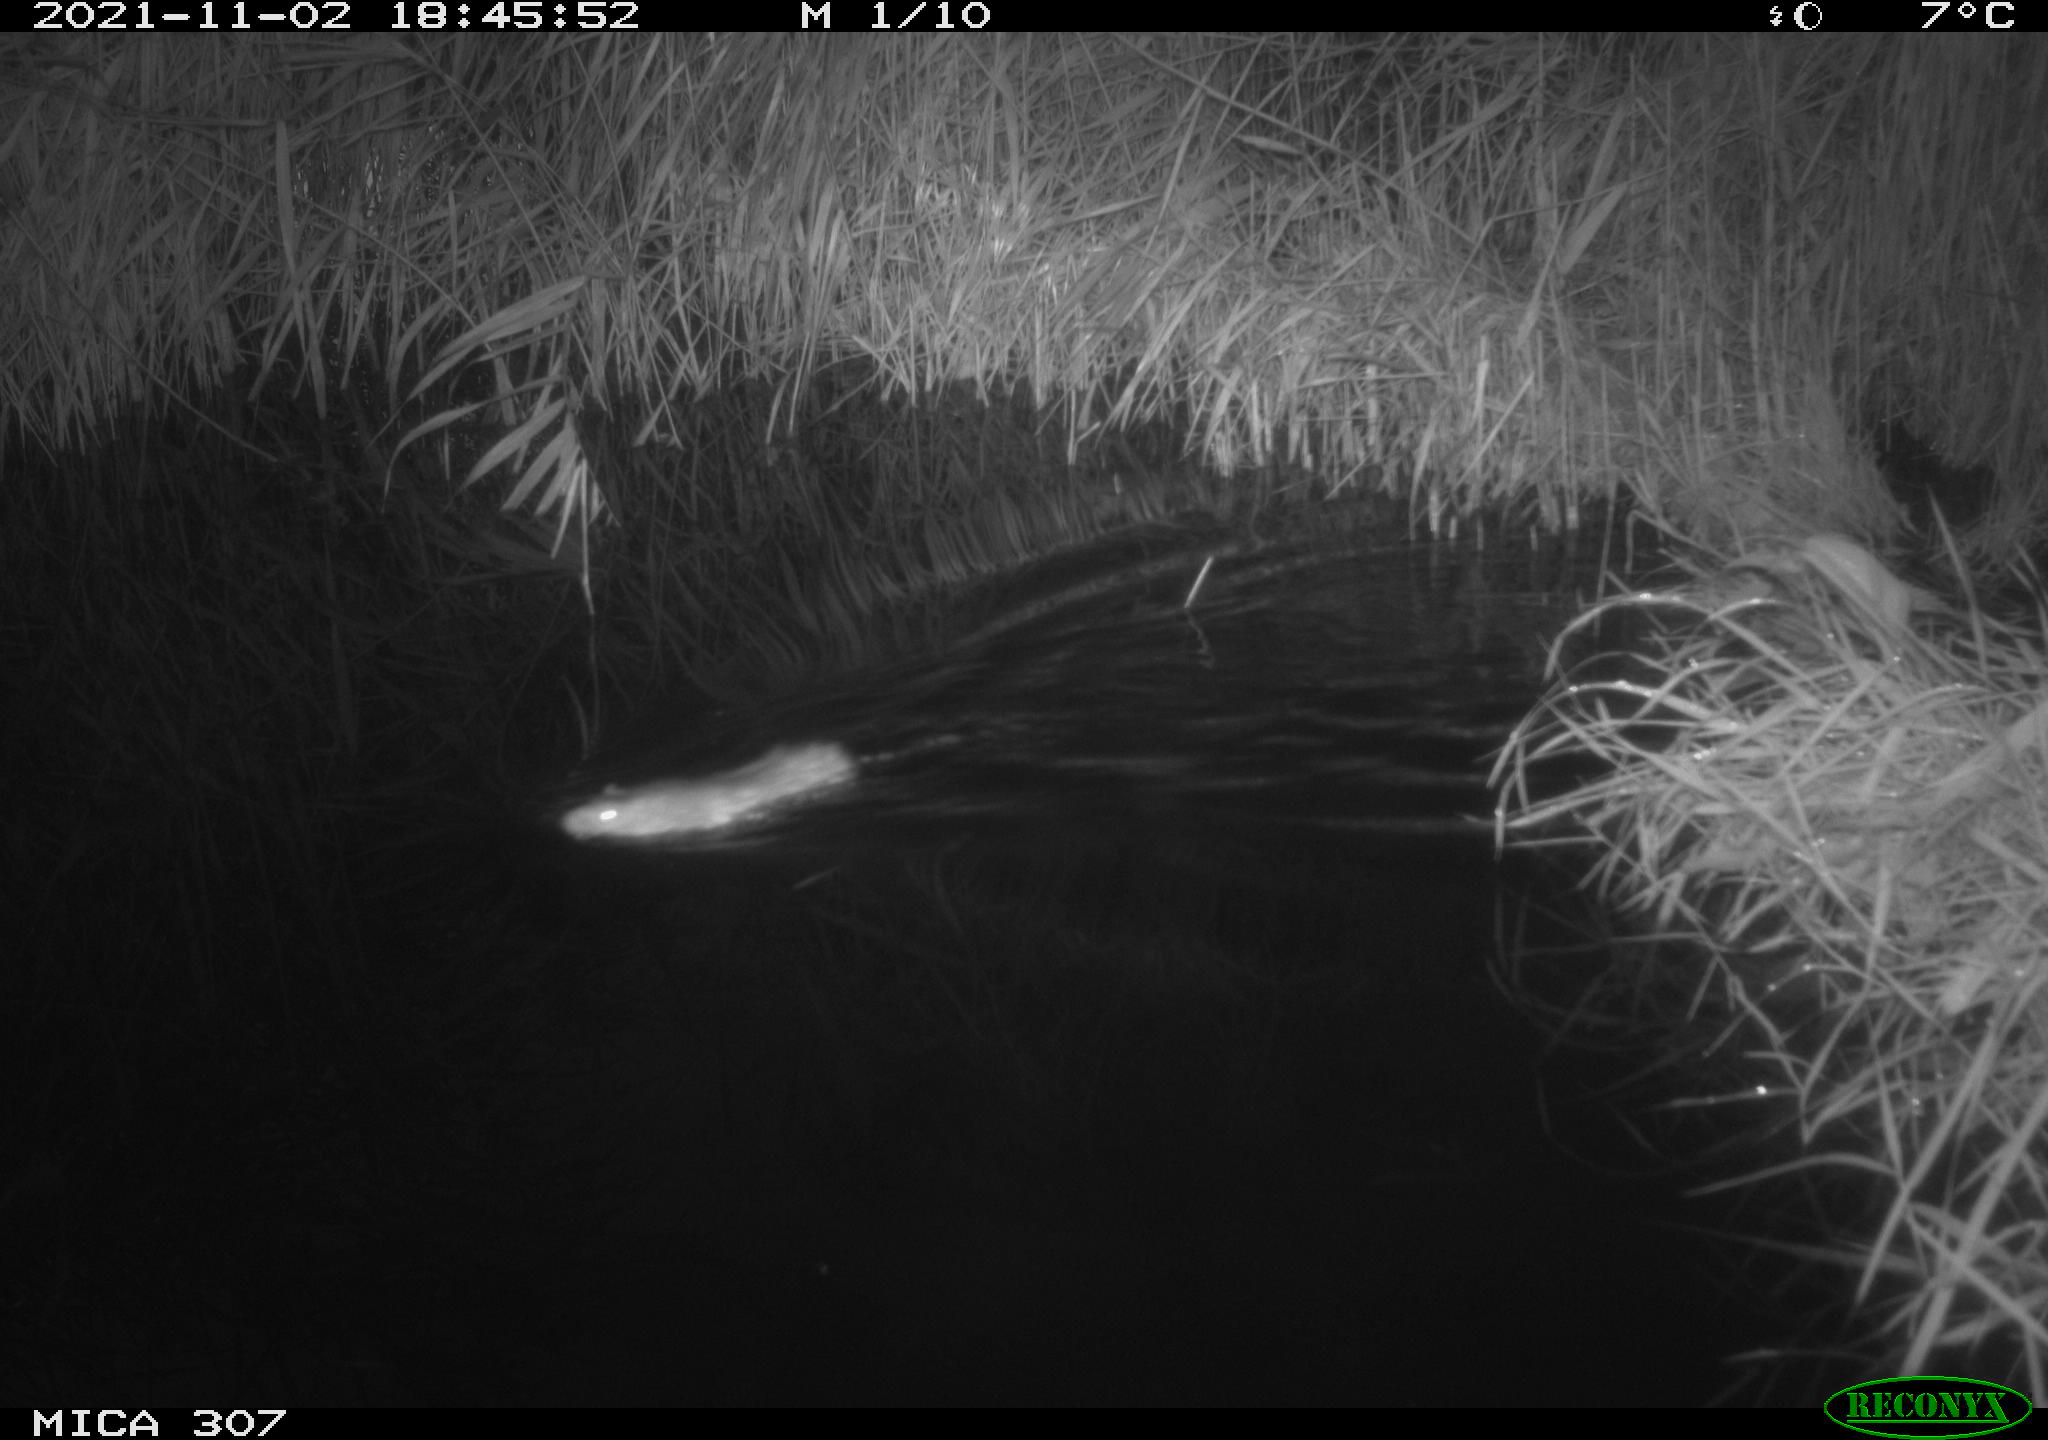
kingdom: Animalia
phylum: Chordata
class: Mammalia
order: Rodentia
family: Muridae
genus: Rattus
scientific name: Rattus norvegicus
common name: Brown rat
